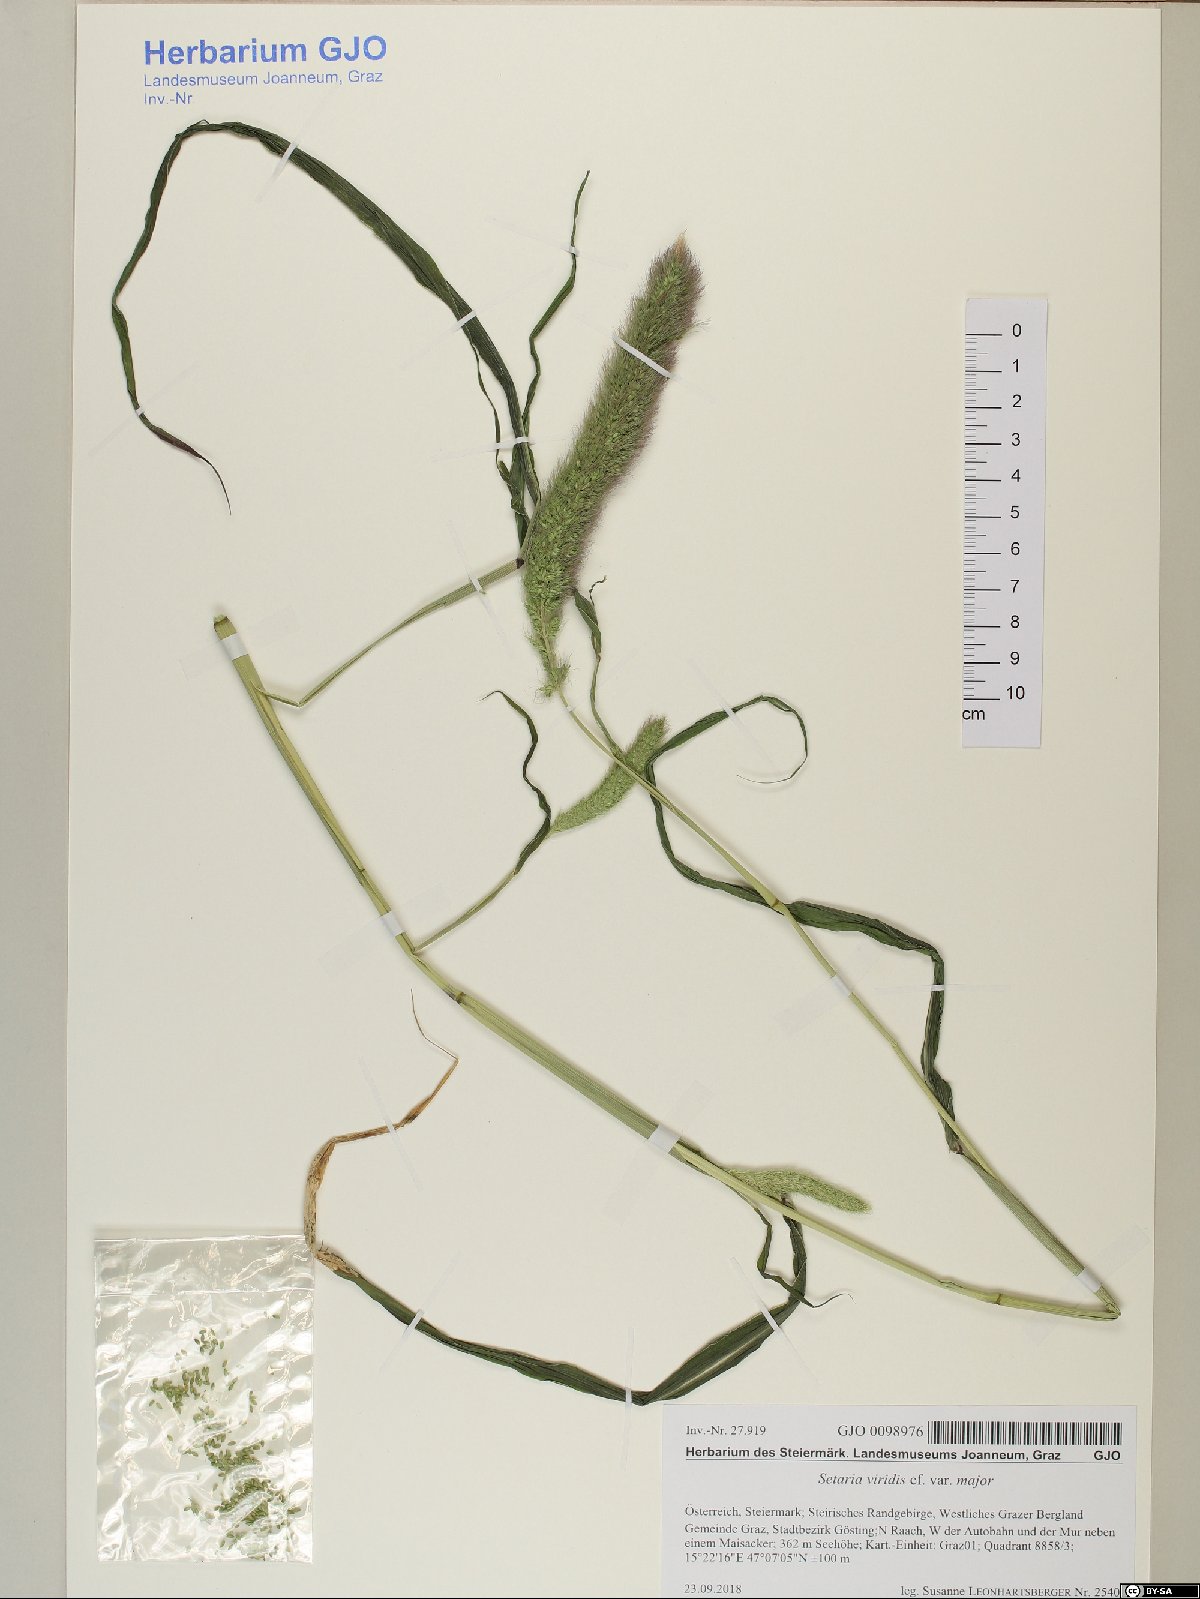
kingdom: Plantae
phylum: Tracheophyta
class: Liliopsida
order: Poales
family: Poaceae
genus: Setaria
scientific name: Setaria viridis
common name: Green bristlegrass
